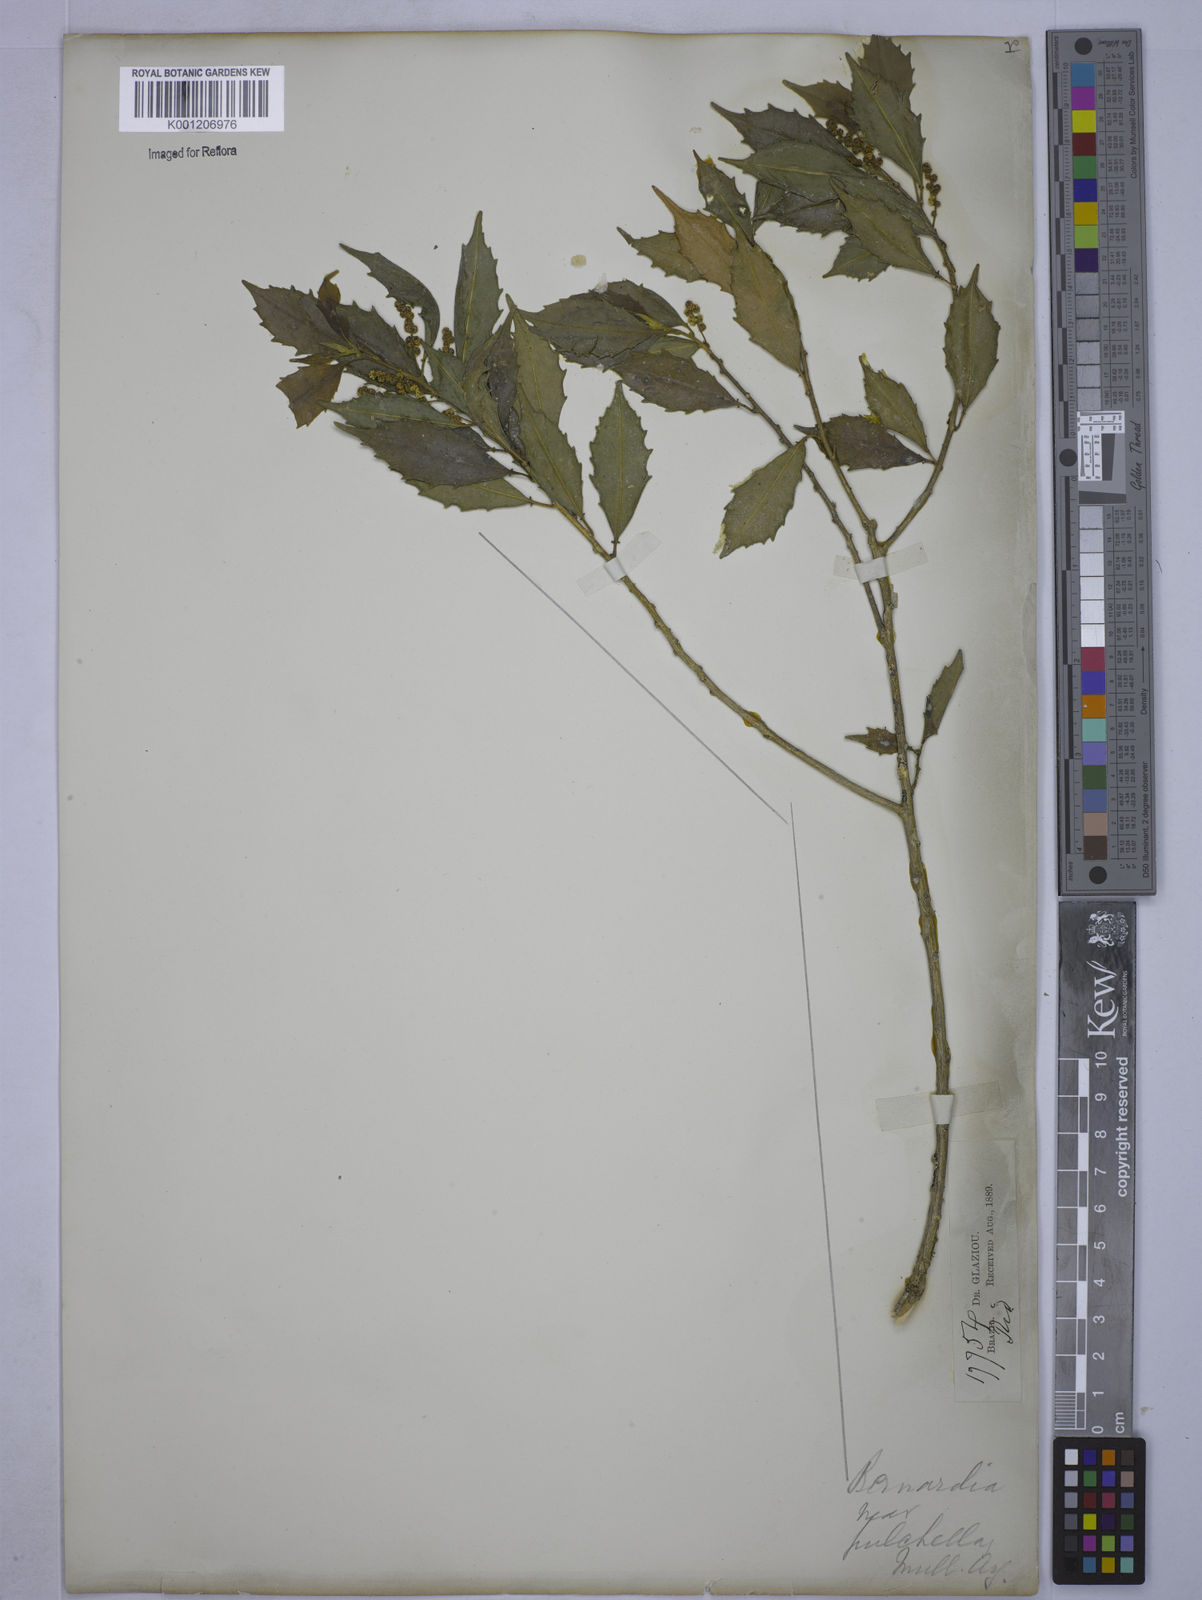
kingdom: Plantae
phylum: Tracheophyta
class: Magnoliopsida
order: Malpighiales
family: Euphorbiaceae
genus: Bernardia
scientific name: Bernardia
